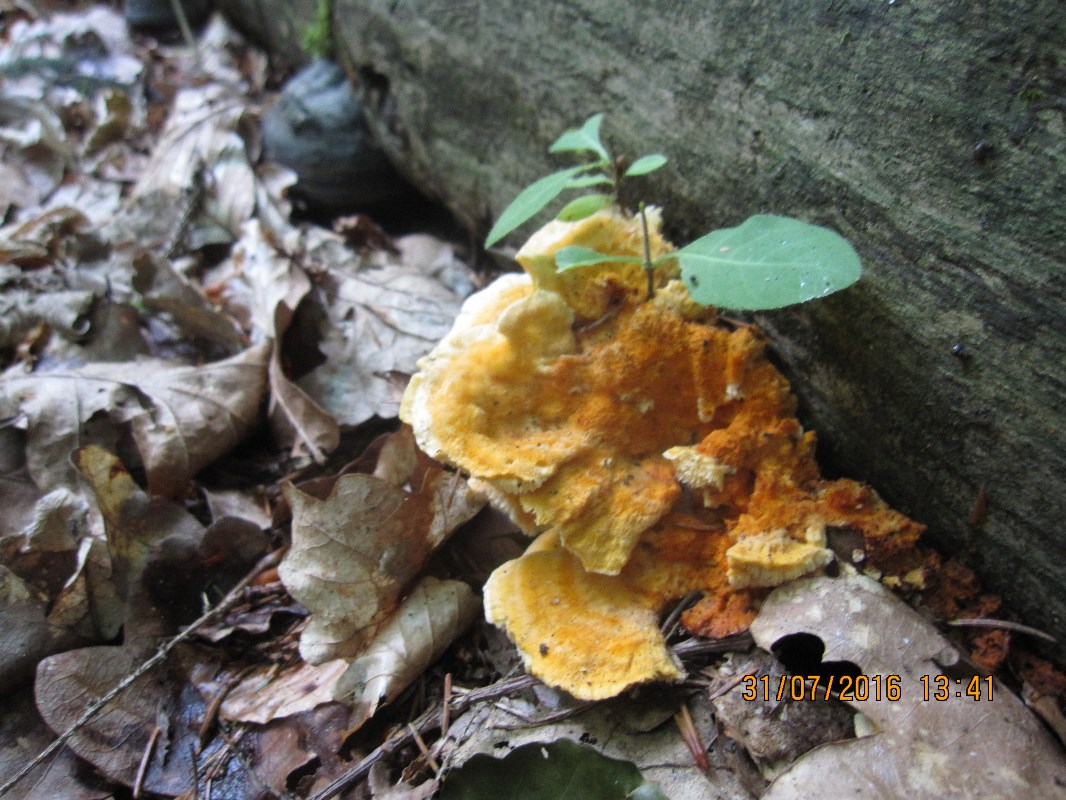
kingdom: Fungi
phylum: Basidiomycota
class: Agaricomycetes
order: Polyporales
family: Pycnoporellaceae
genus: Pycnoporellus
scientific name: Pycnoporellus fulgens
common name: flammeporesvamp
